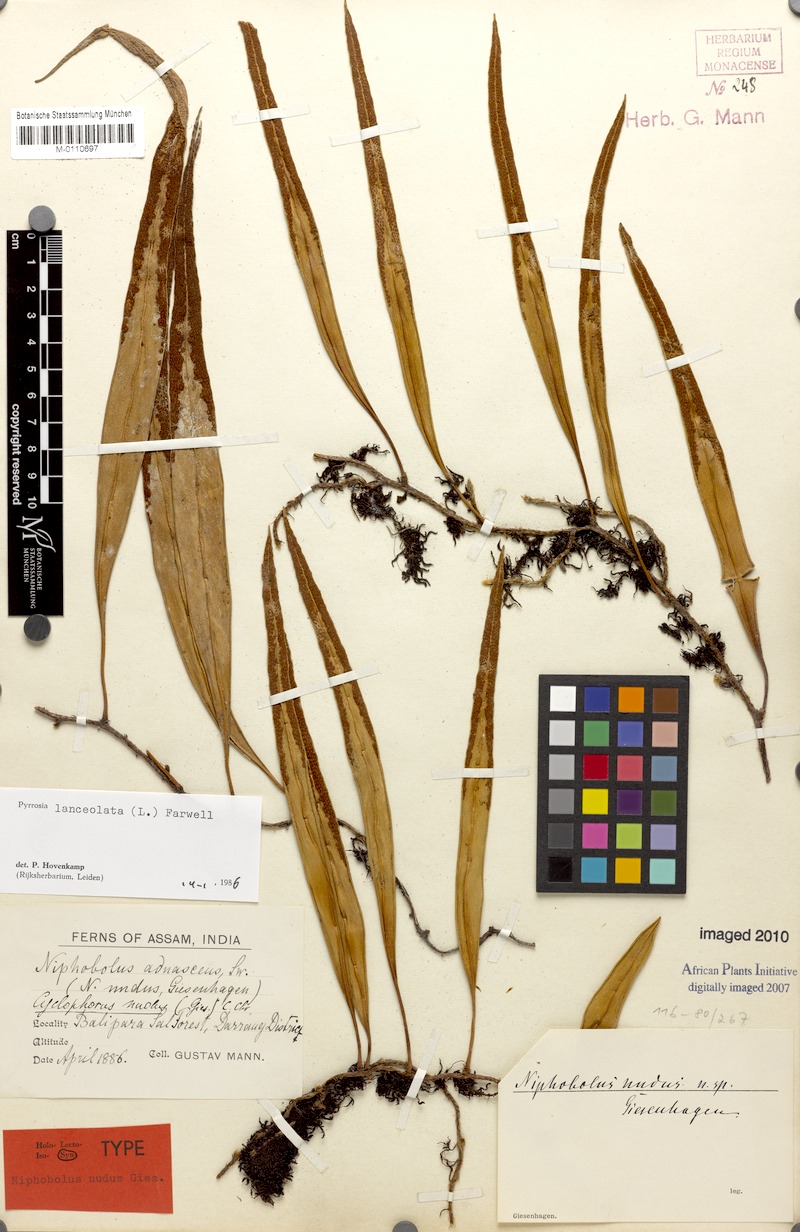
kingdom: Plantae
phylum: Tracheophyta
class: Polypodiopsida
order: Polypodiales
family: Polypodiaceae
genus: Pyrrosia
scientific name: Pyrrosia lanceolata
